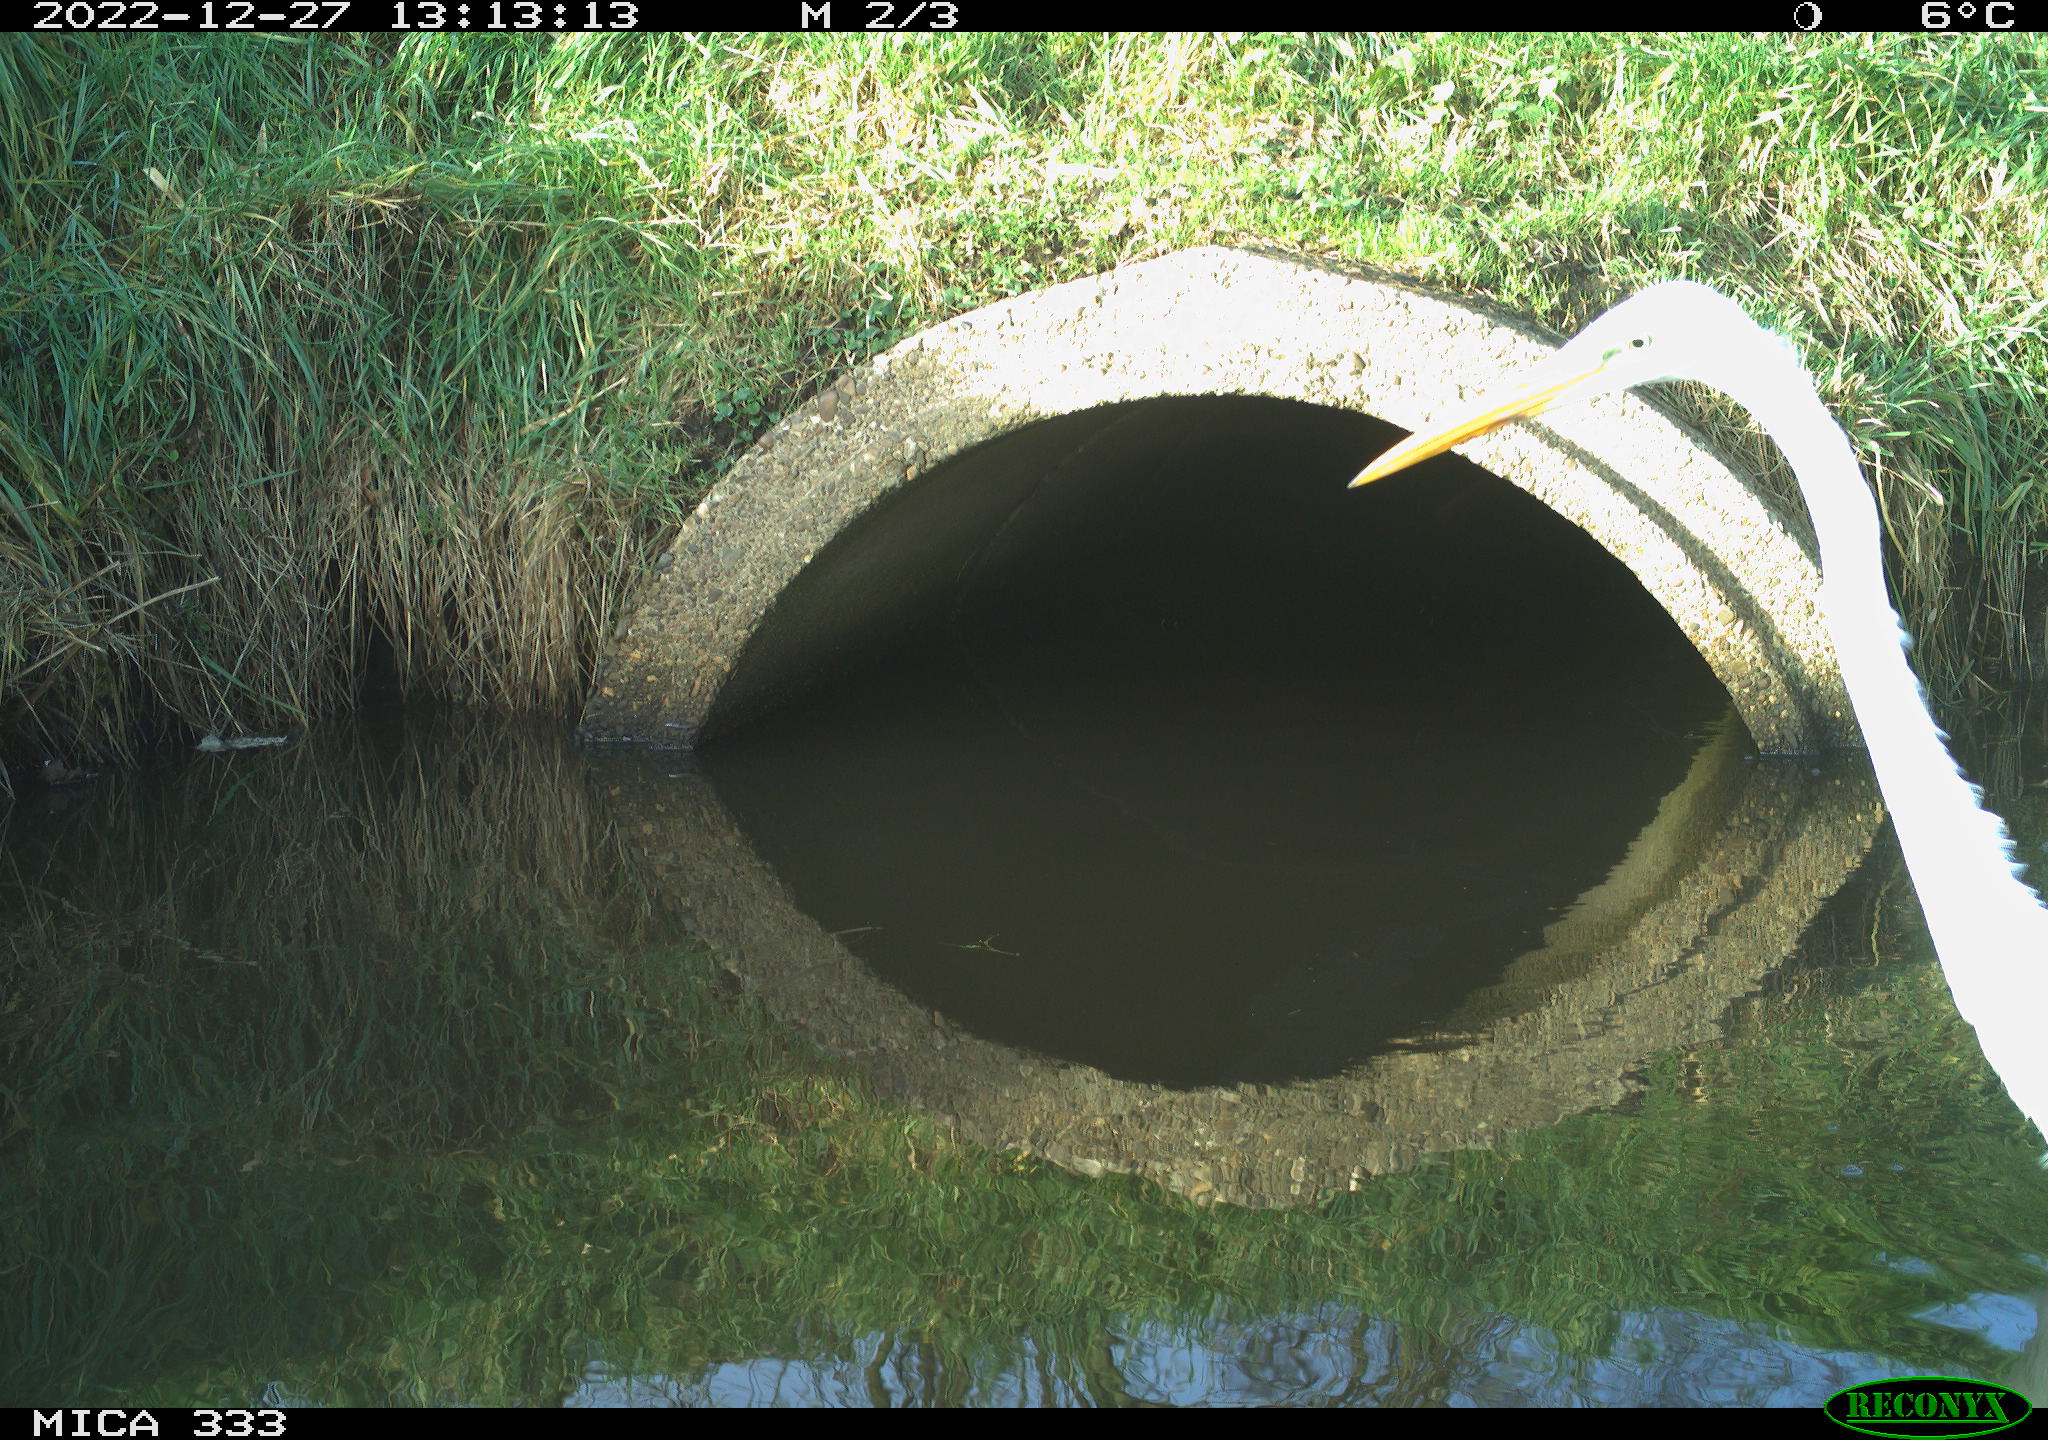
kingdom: Animalia
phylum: Chordata
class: Aves
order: Pelecaniformes
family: Ardeidae
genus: Ardea
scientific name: Ardea alba
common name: Great egret
